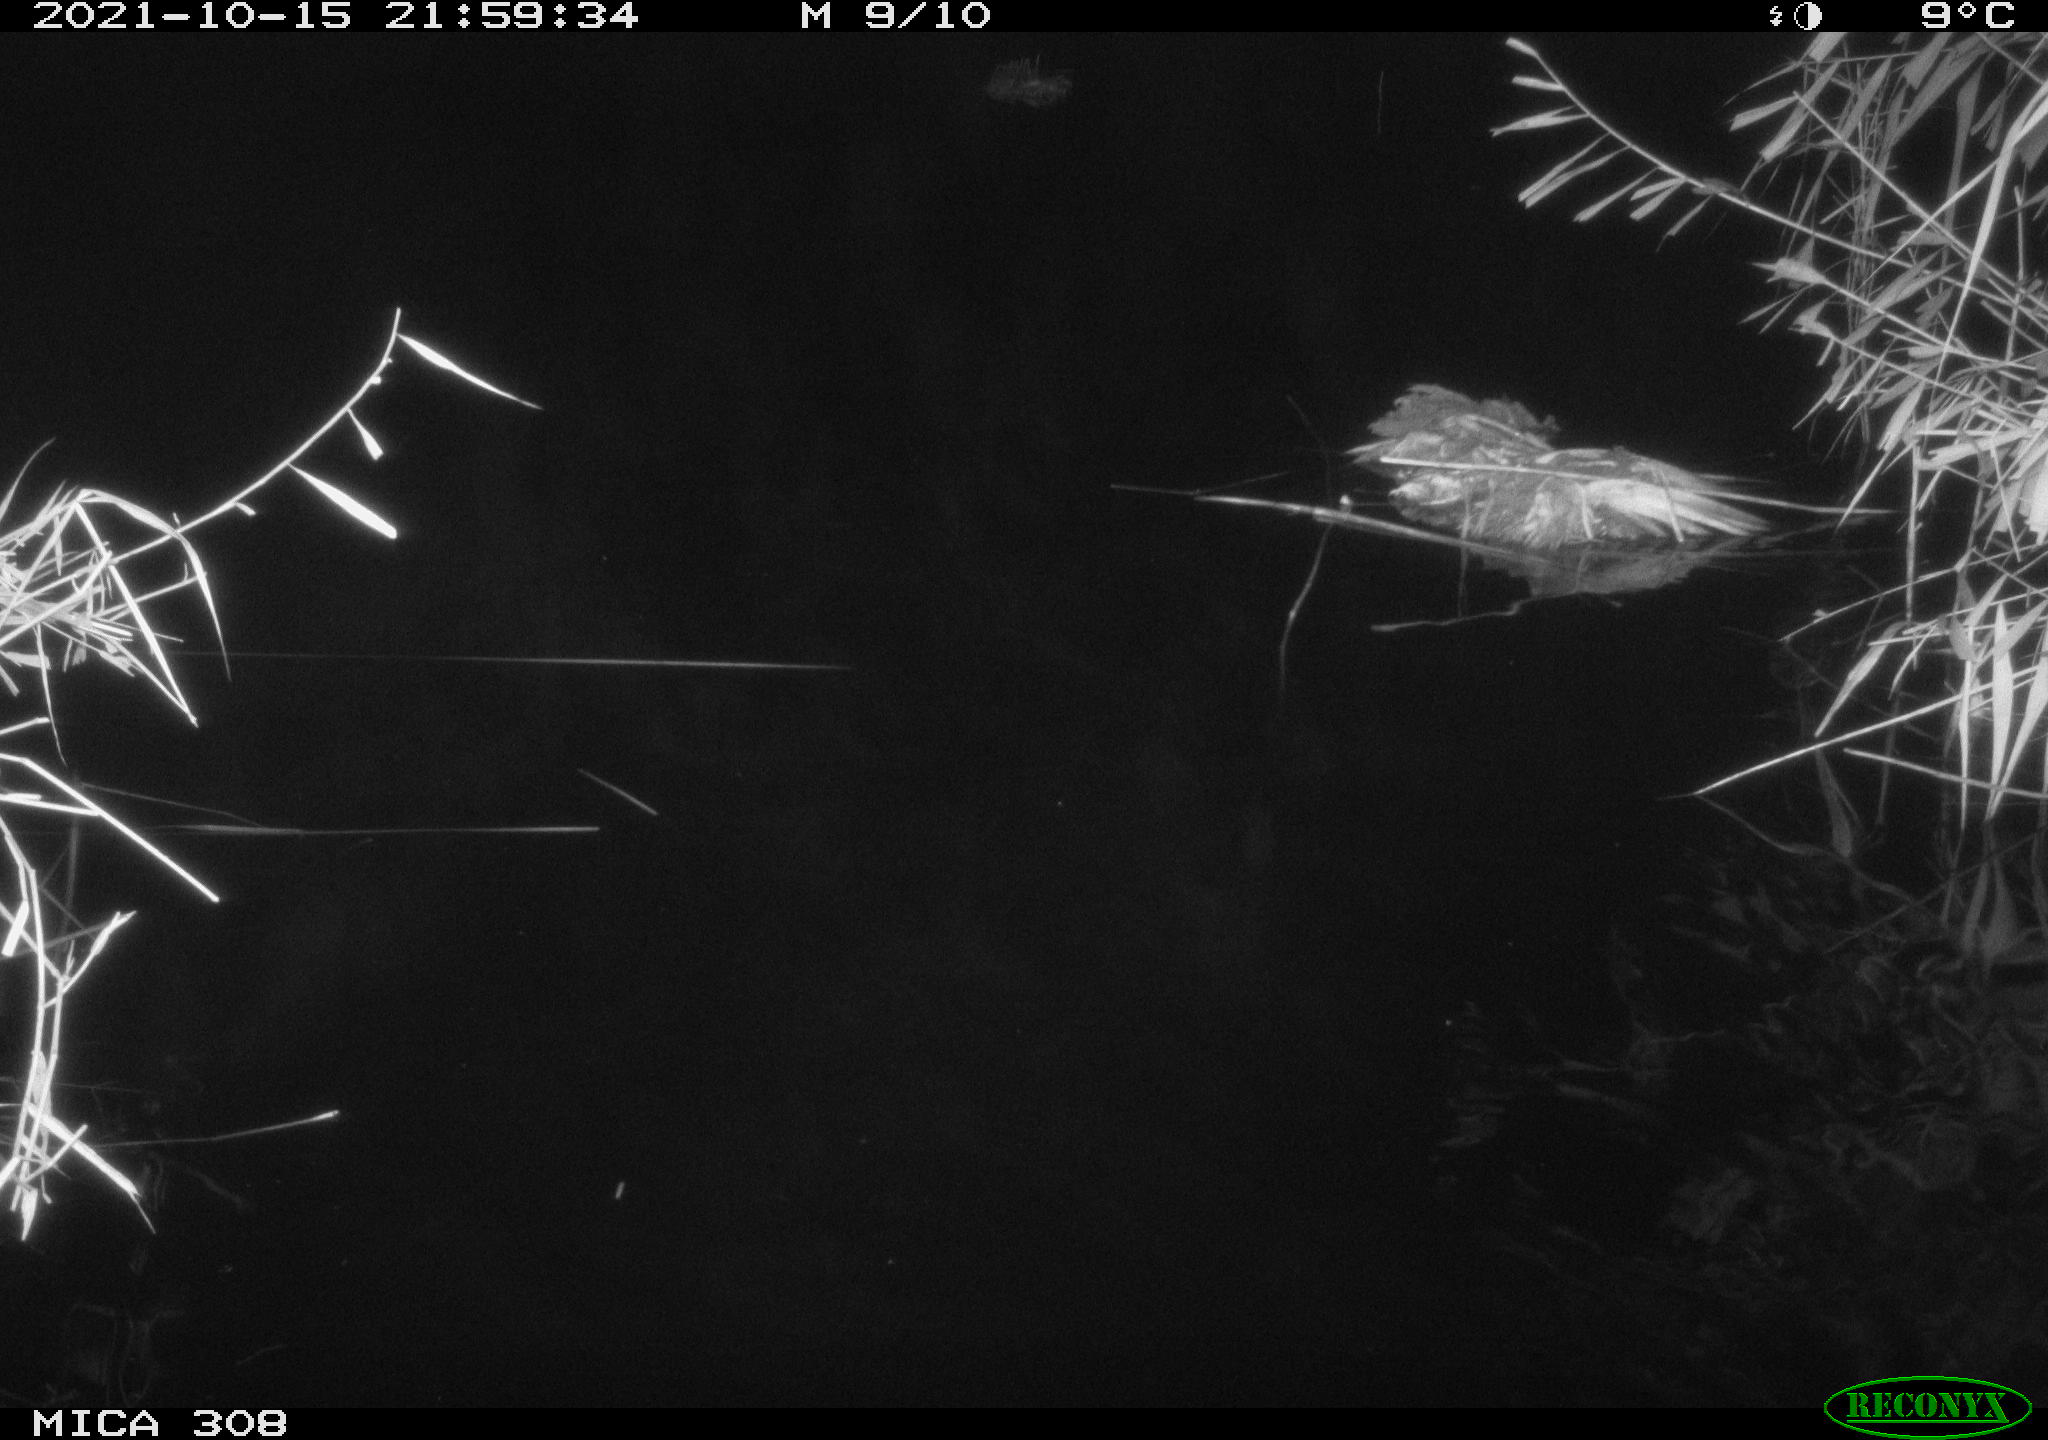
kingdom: Animalia
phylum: Chordata
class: Mammalia
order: Rodentia
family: Muridae
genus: Rattus
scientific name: Rattus norvegicus
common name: Brown rat
